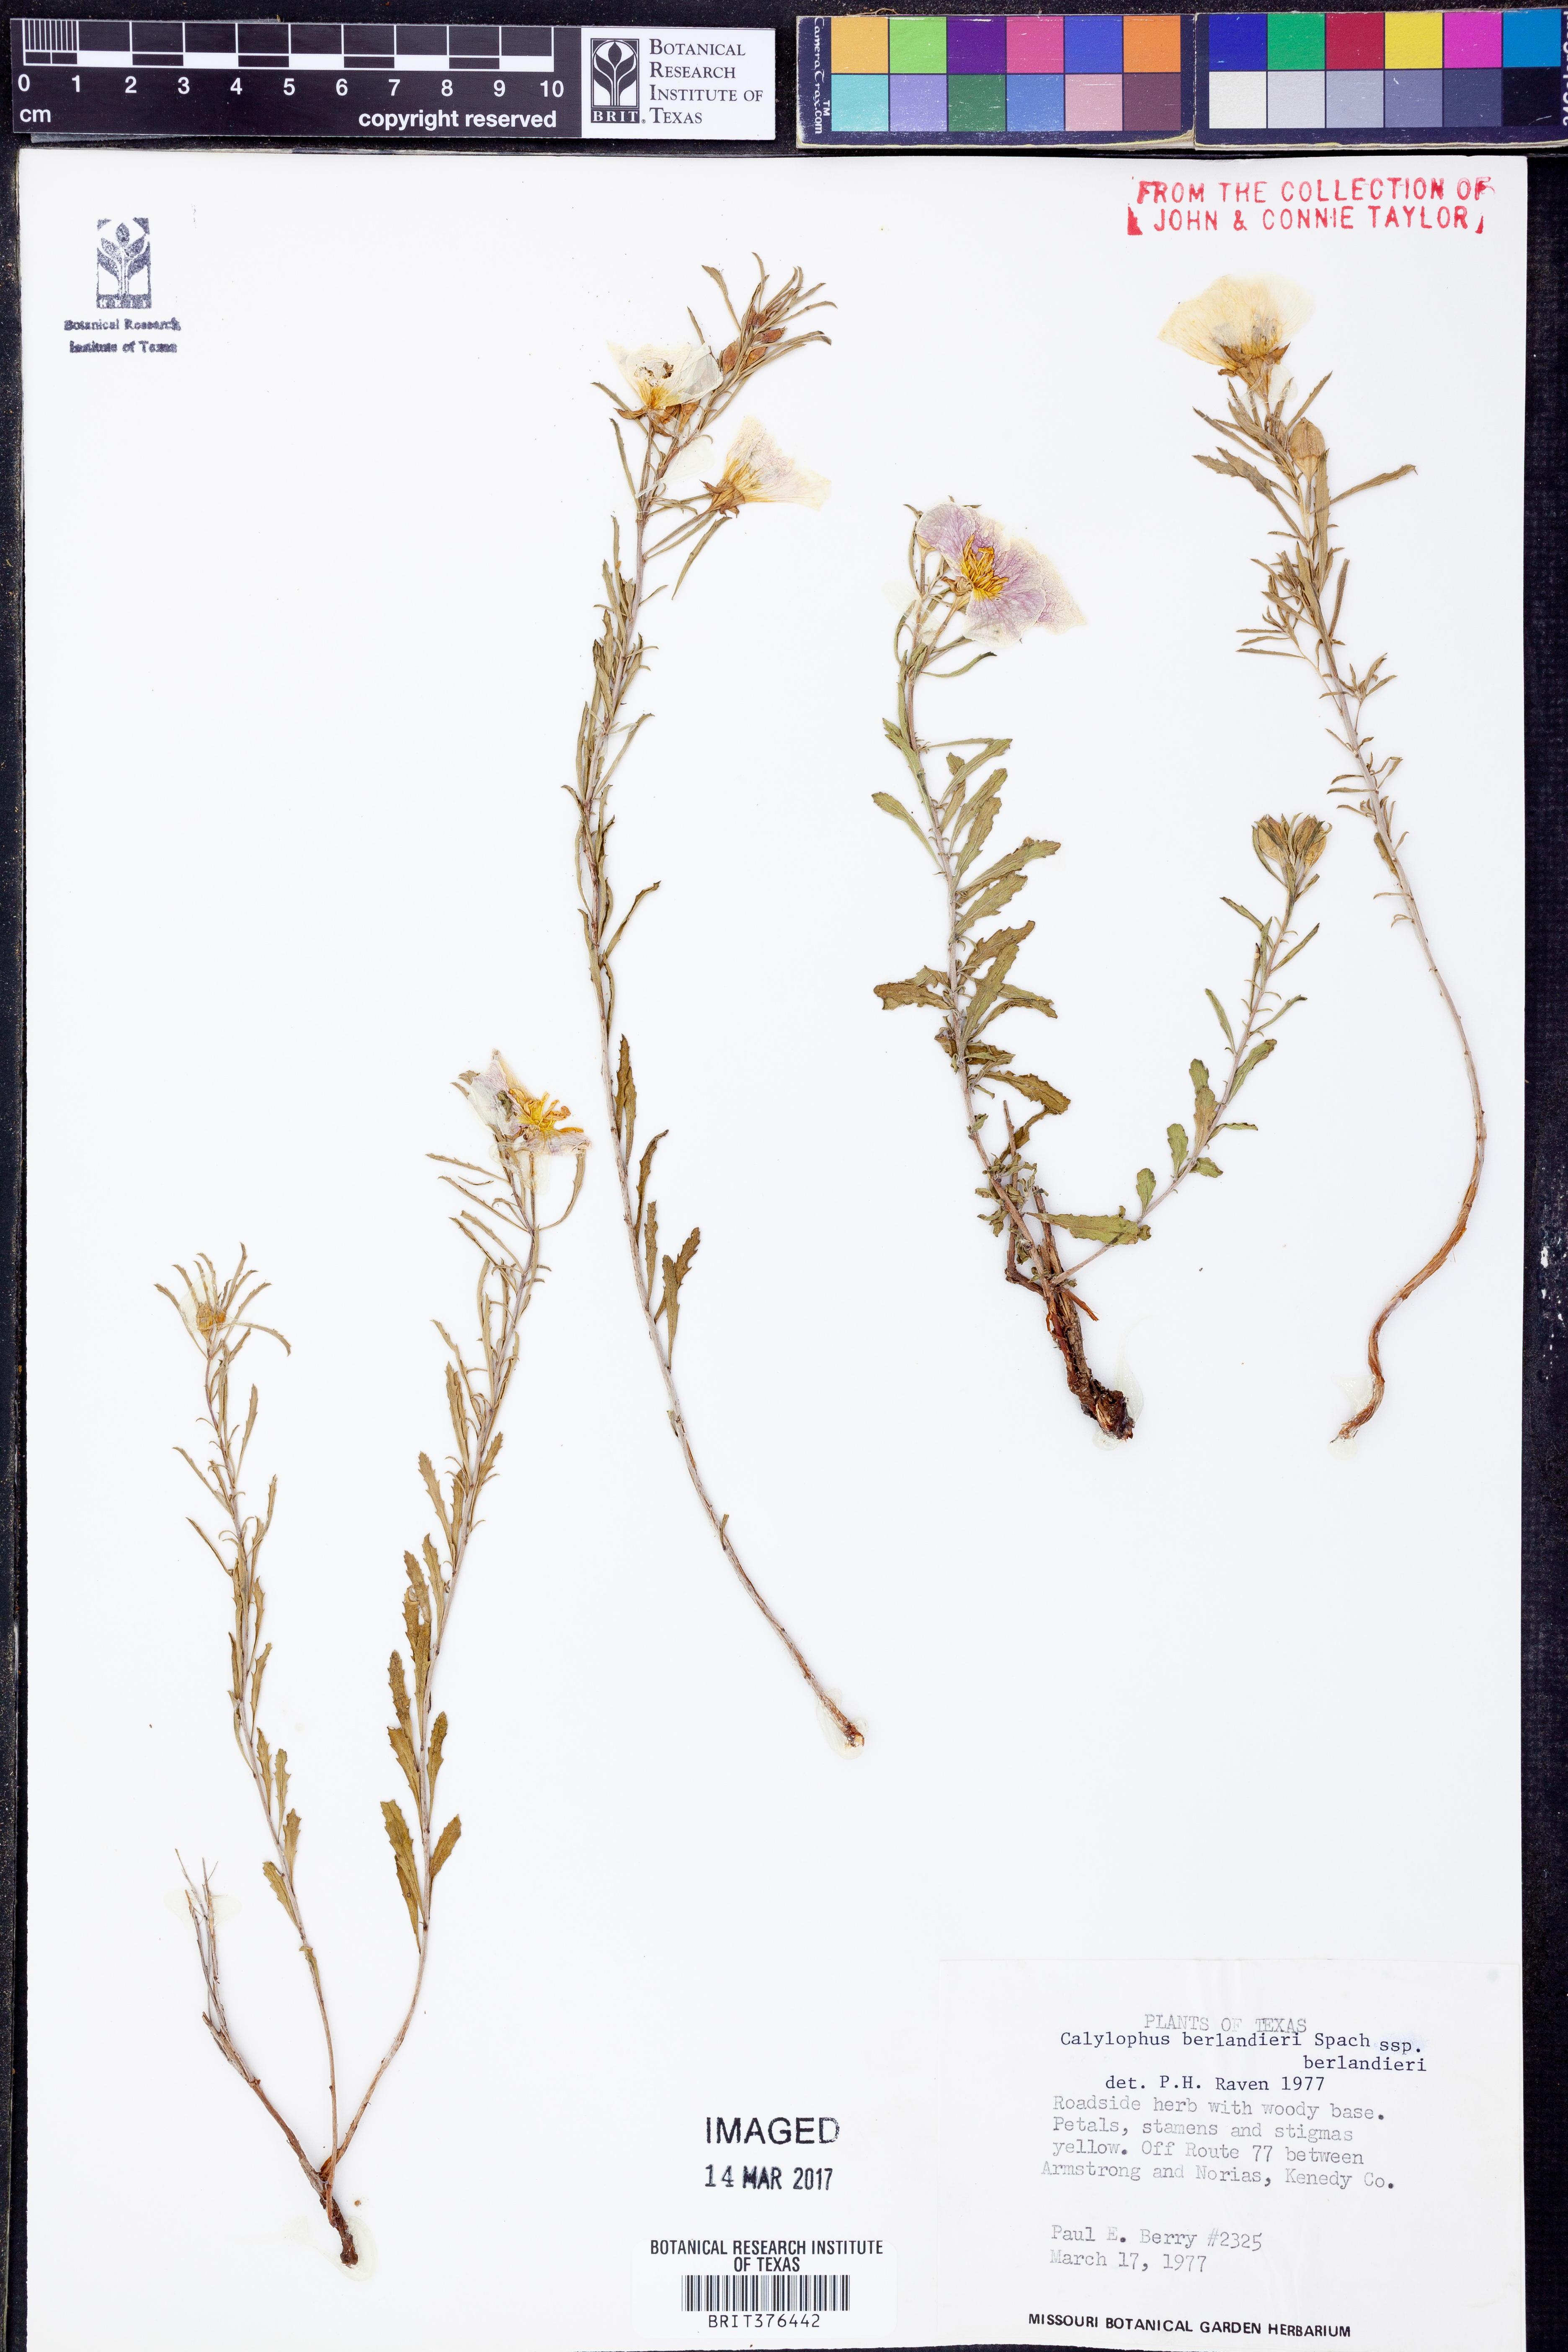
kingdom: Plantae
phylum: Tracheophyta
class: Magnoliopsida
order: Myrtales
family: Onagraceae
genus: Oenothera
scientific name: Oenothera capillifolia
